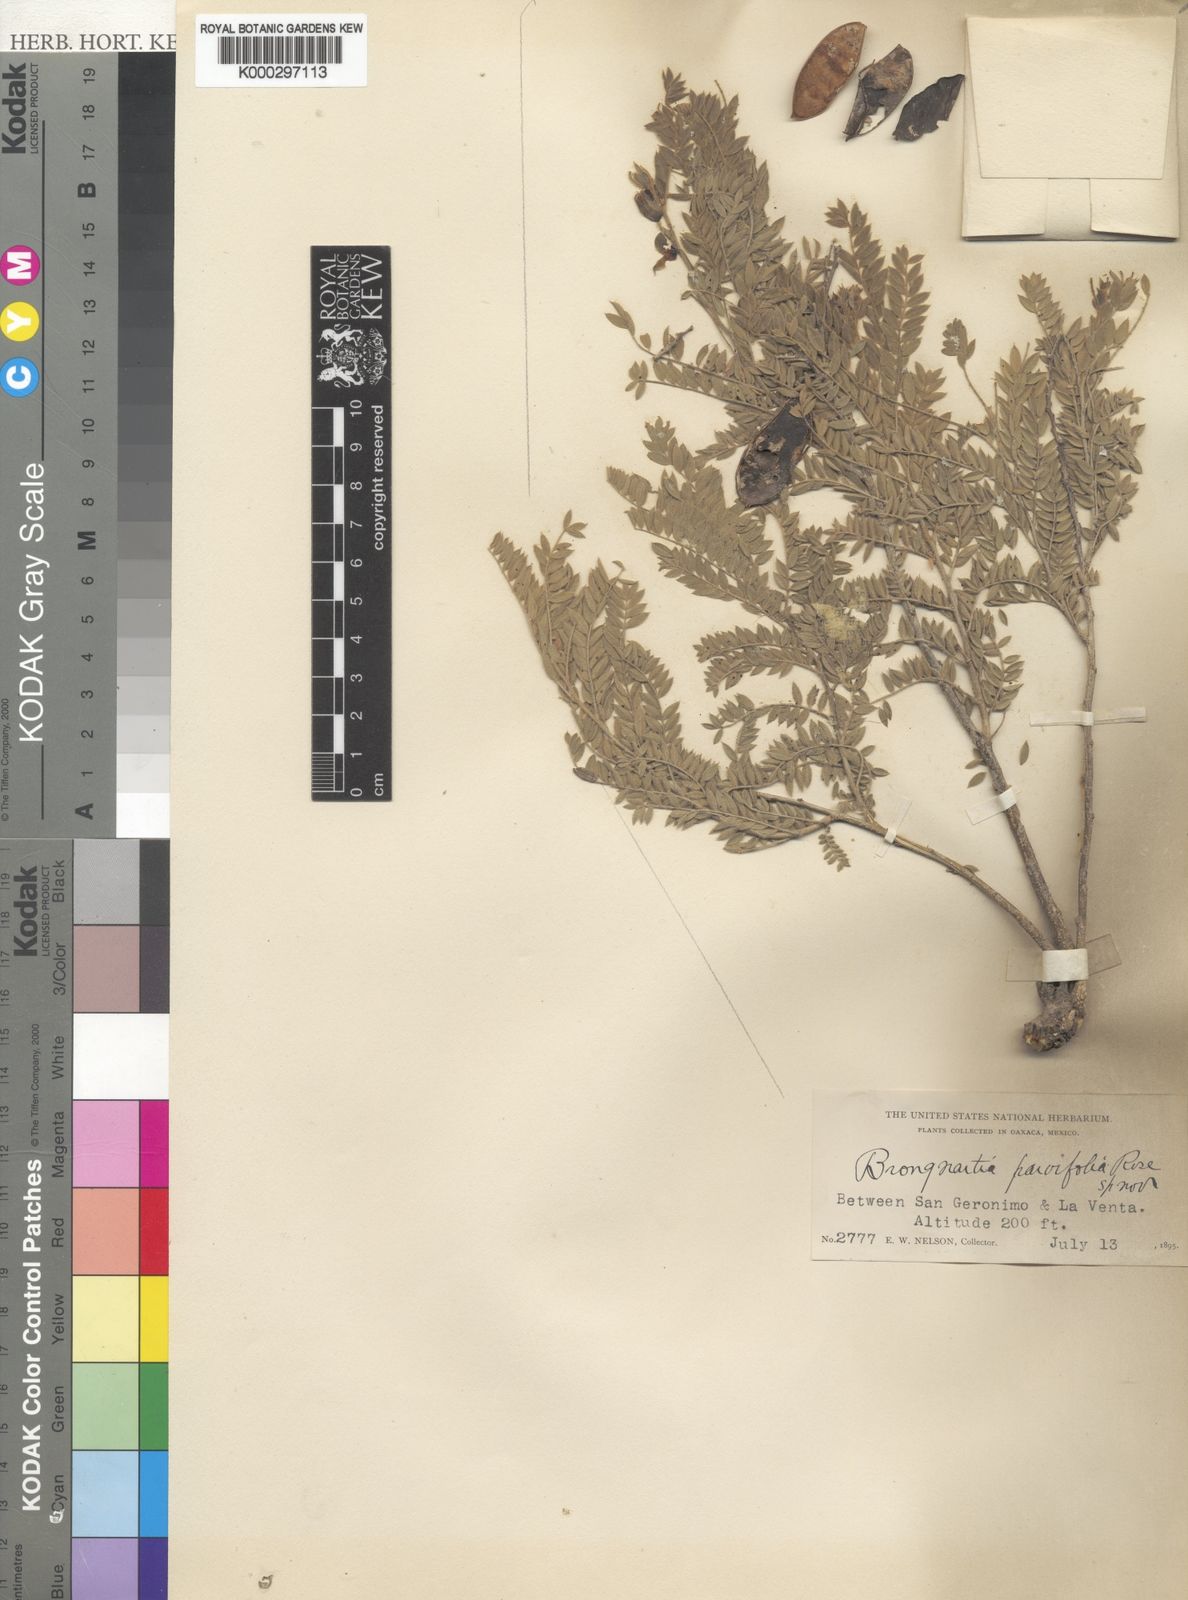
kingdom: Plantae
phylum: Tracheophyta
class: Magnoliopsida
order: Fabales
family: Fabaceae
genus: Brongniartia
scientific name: Brongniartia parvifolia
